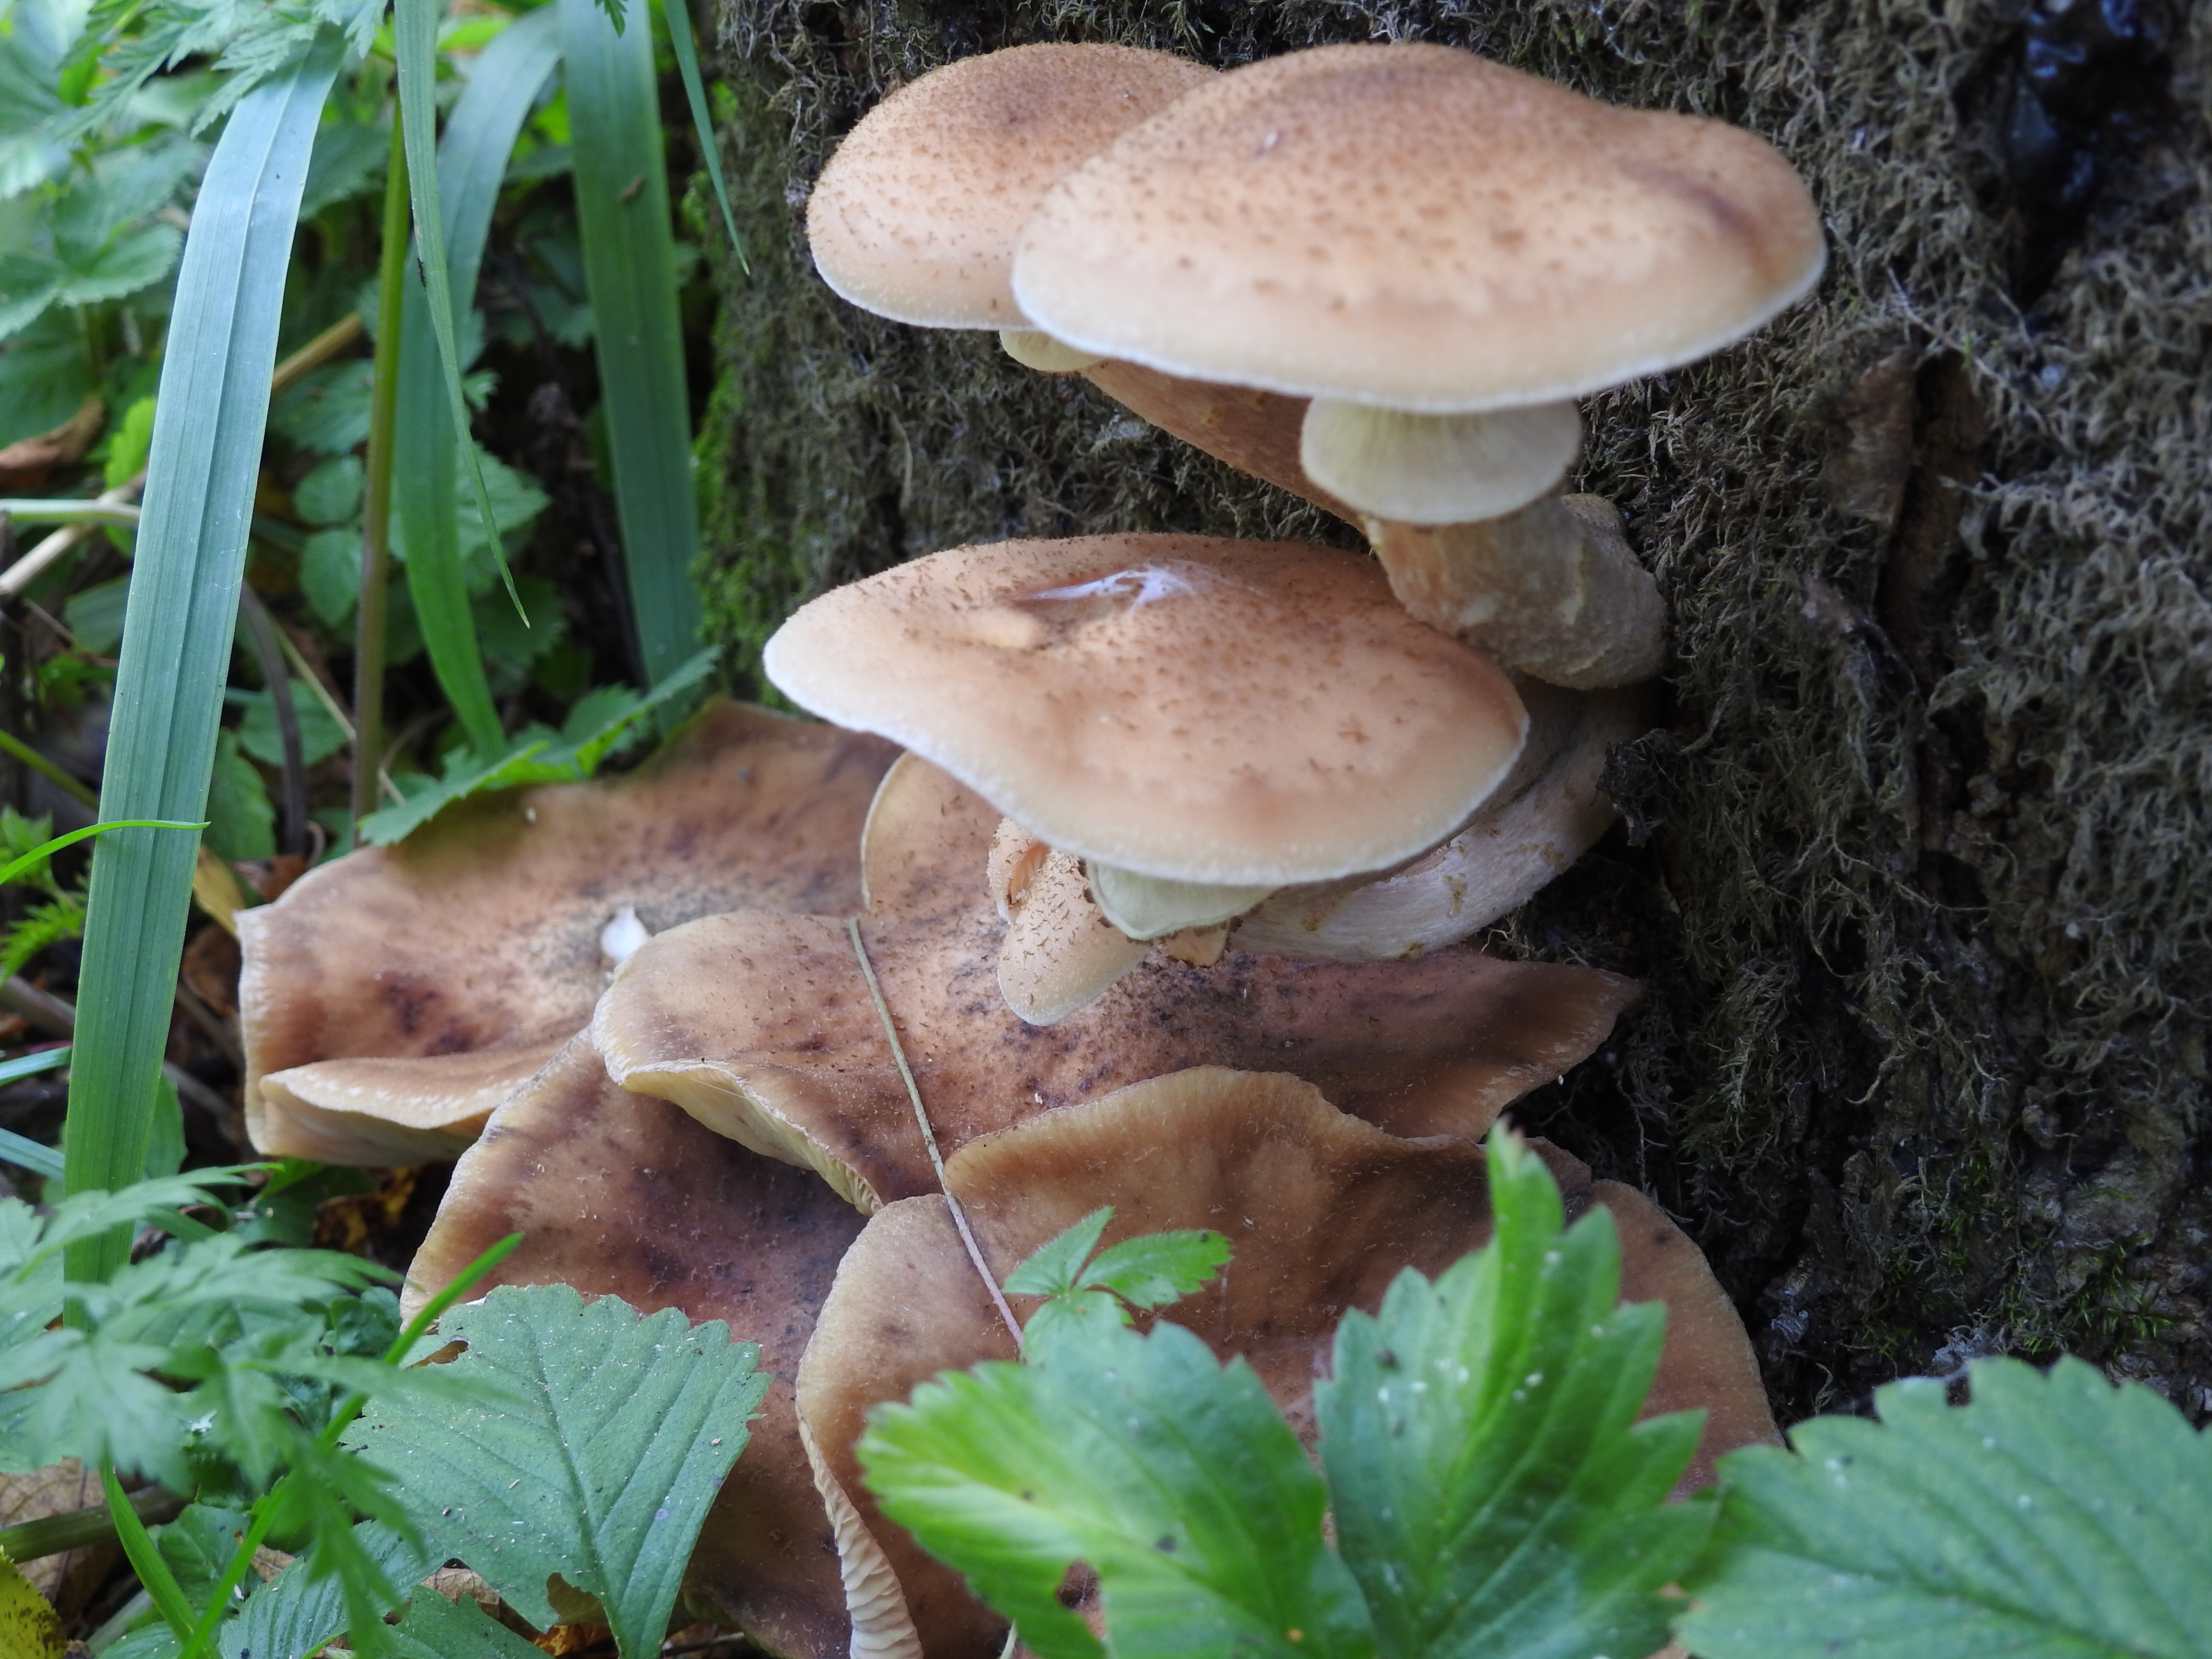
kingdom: Fungi
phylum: Basidiomycota
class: Agaricomycetes
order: Agaricales
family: Physalacriaceae
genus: Armillaria
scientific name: Armillaria borealis
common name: Northern honey fungus
